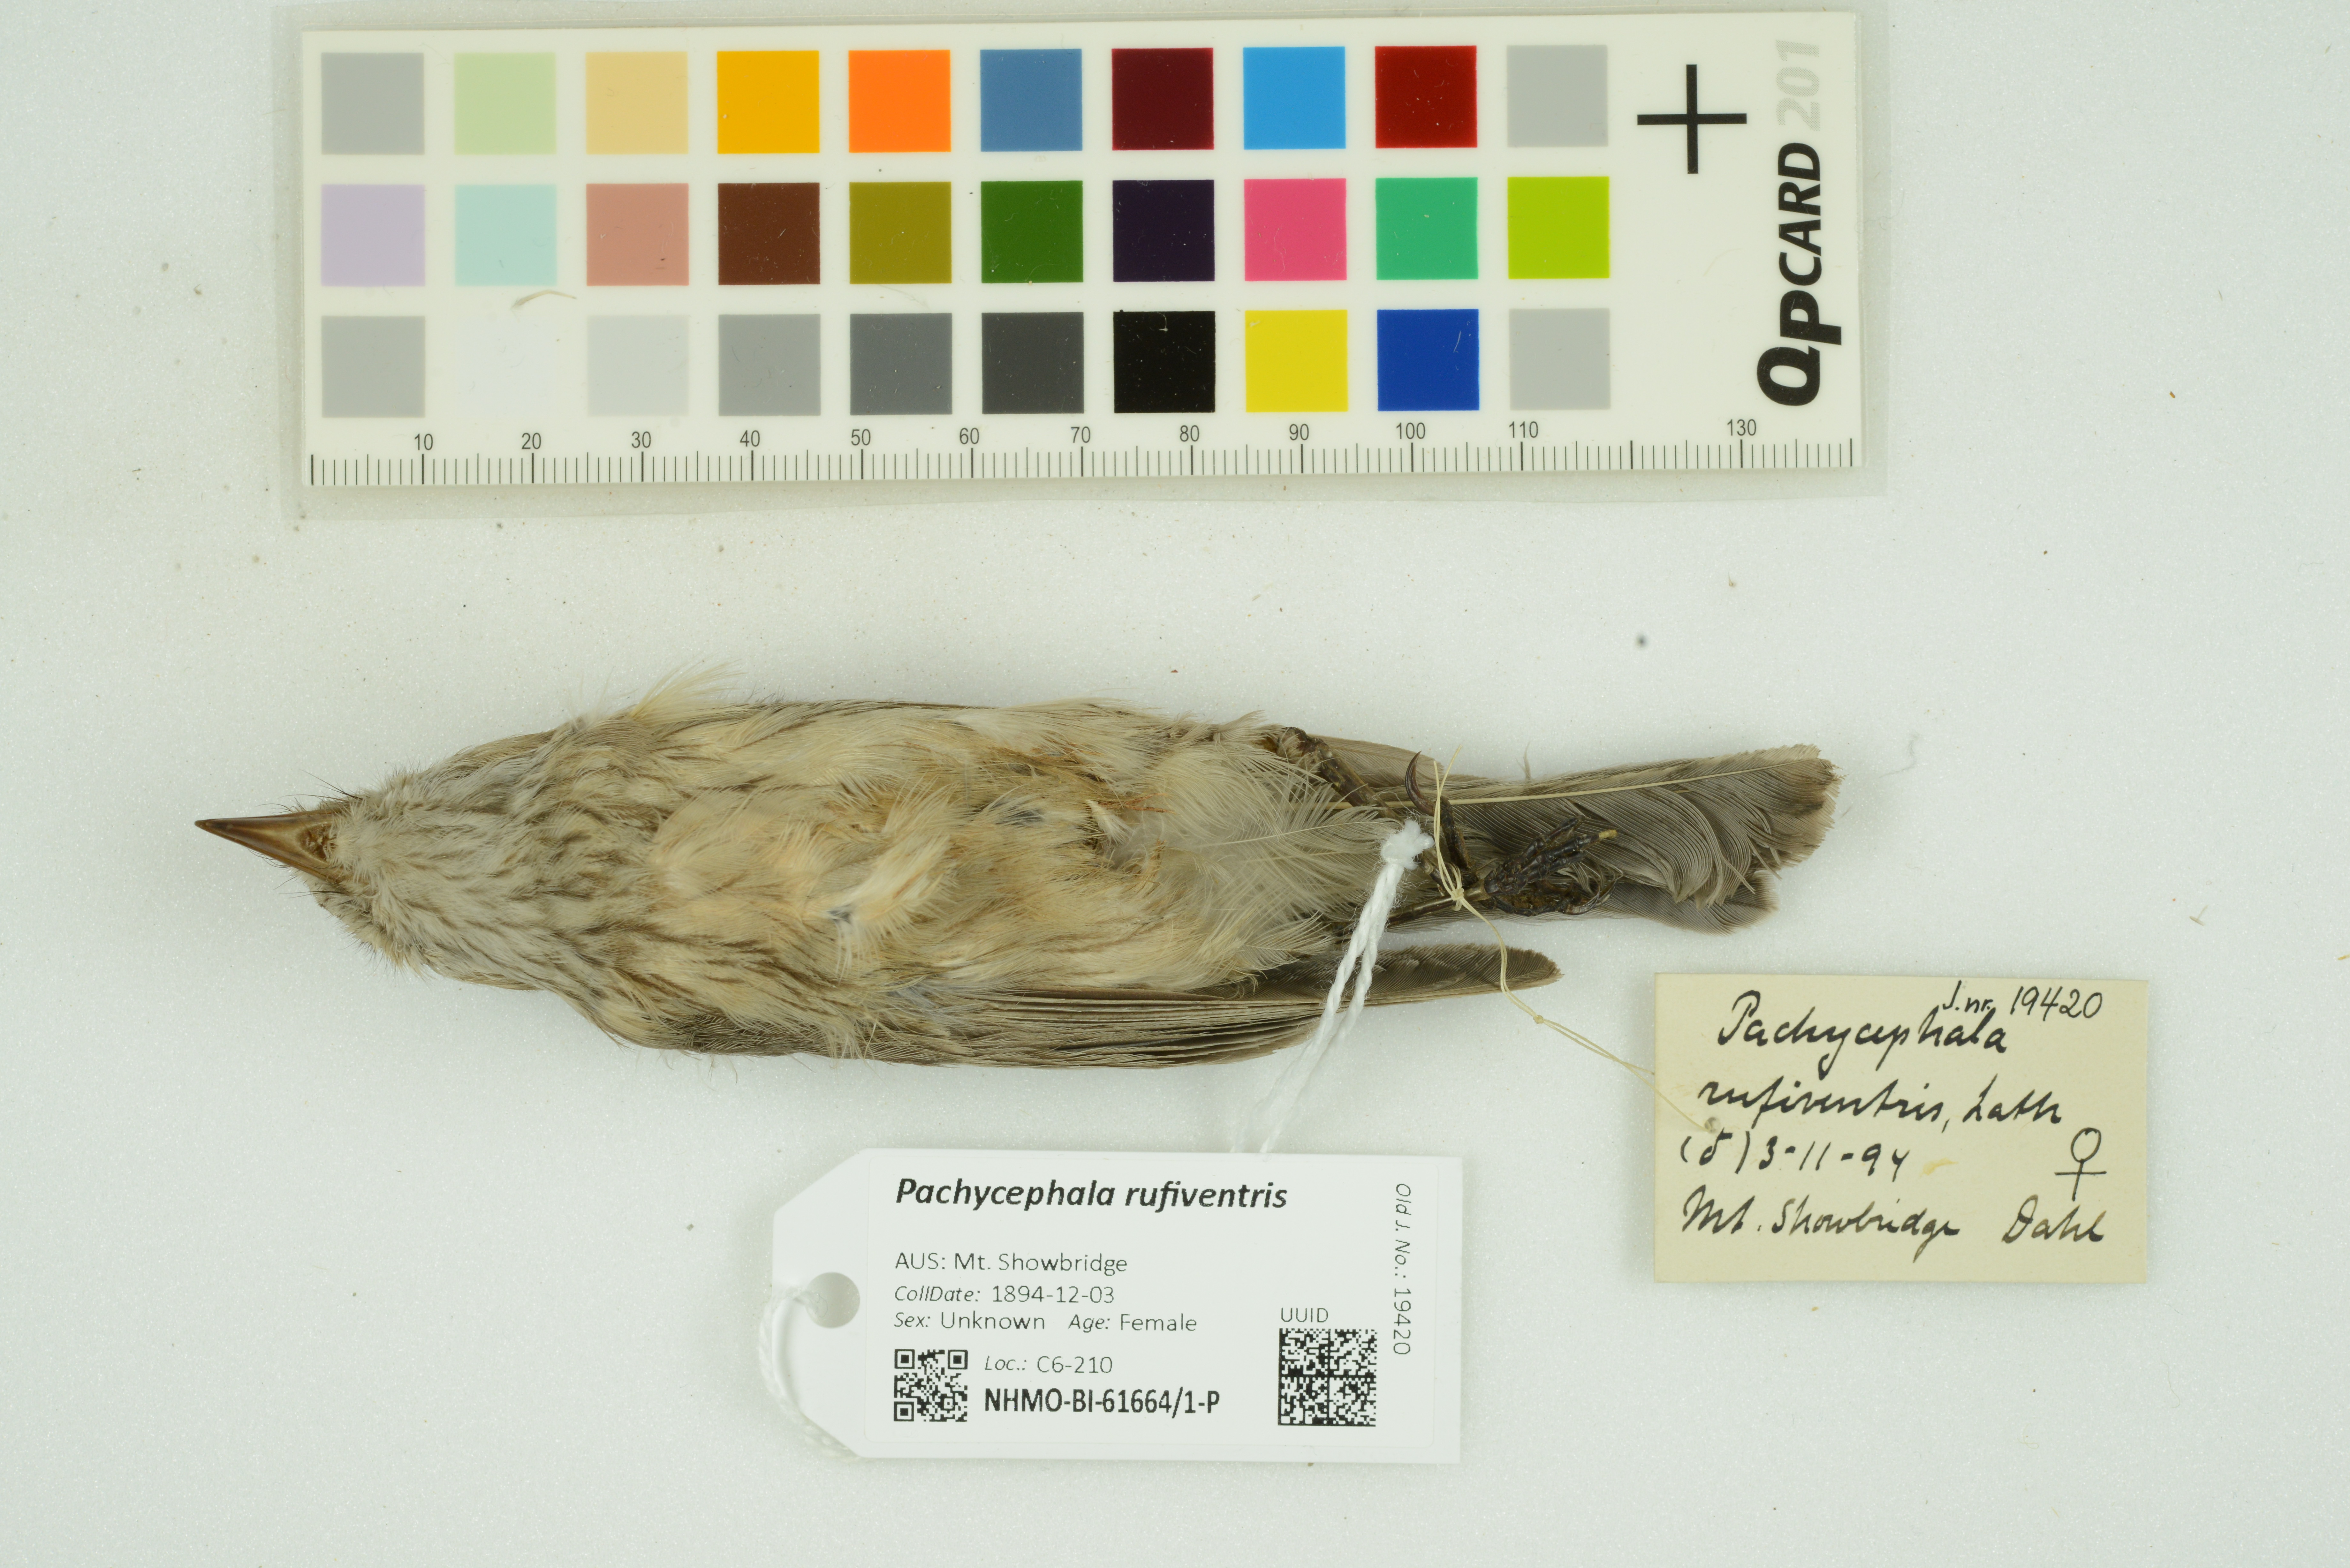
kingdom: Animalia
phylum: Chordata
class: Aves
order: Passeriformes
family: Pachycephalidae
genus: Pachycephala
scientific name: Pachycephala rufiventris
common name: Rufous whistler
